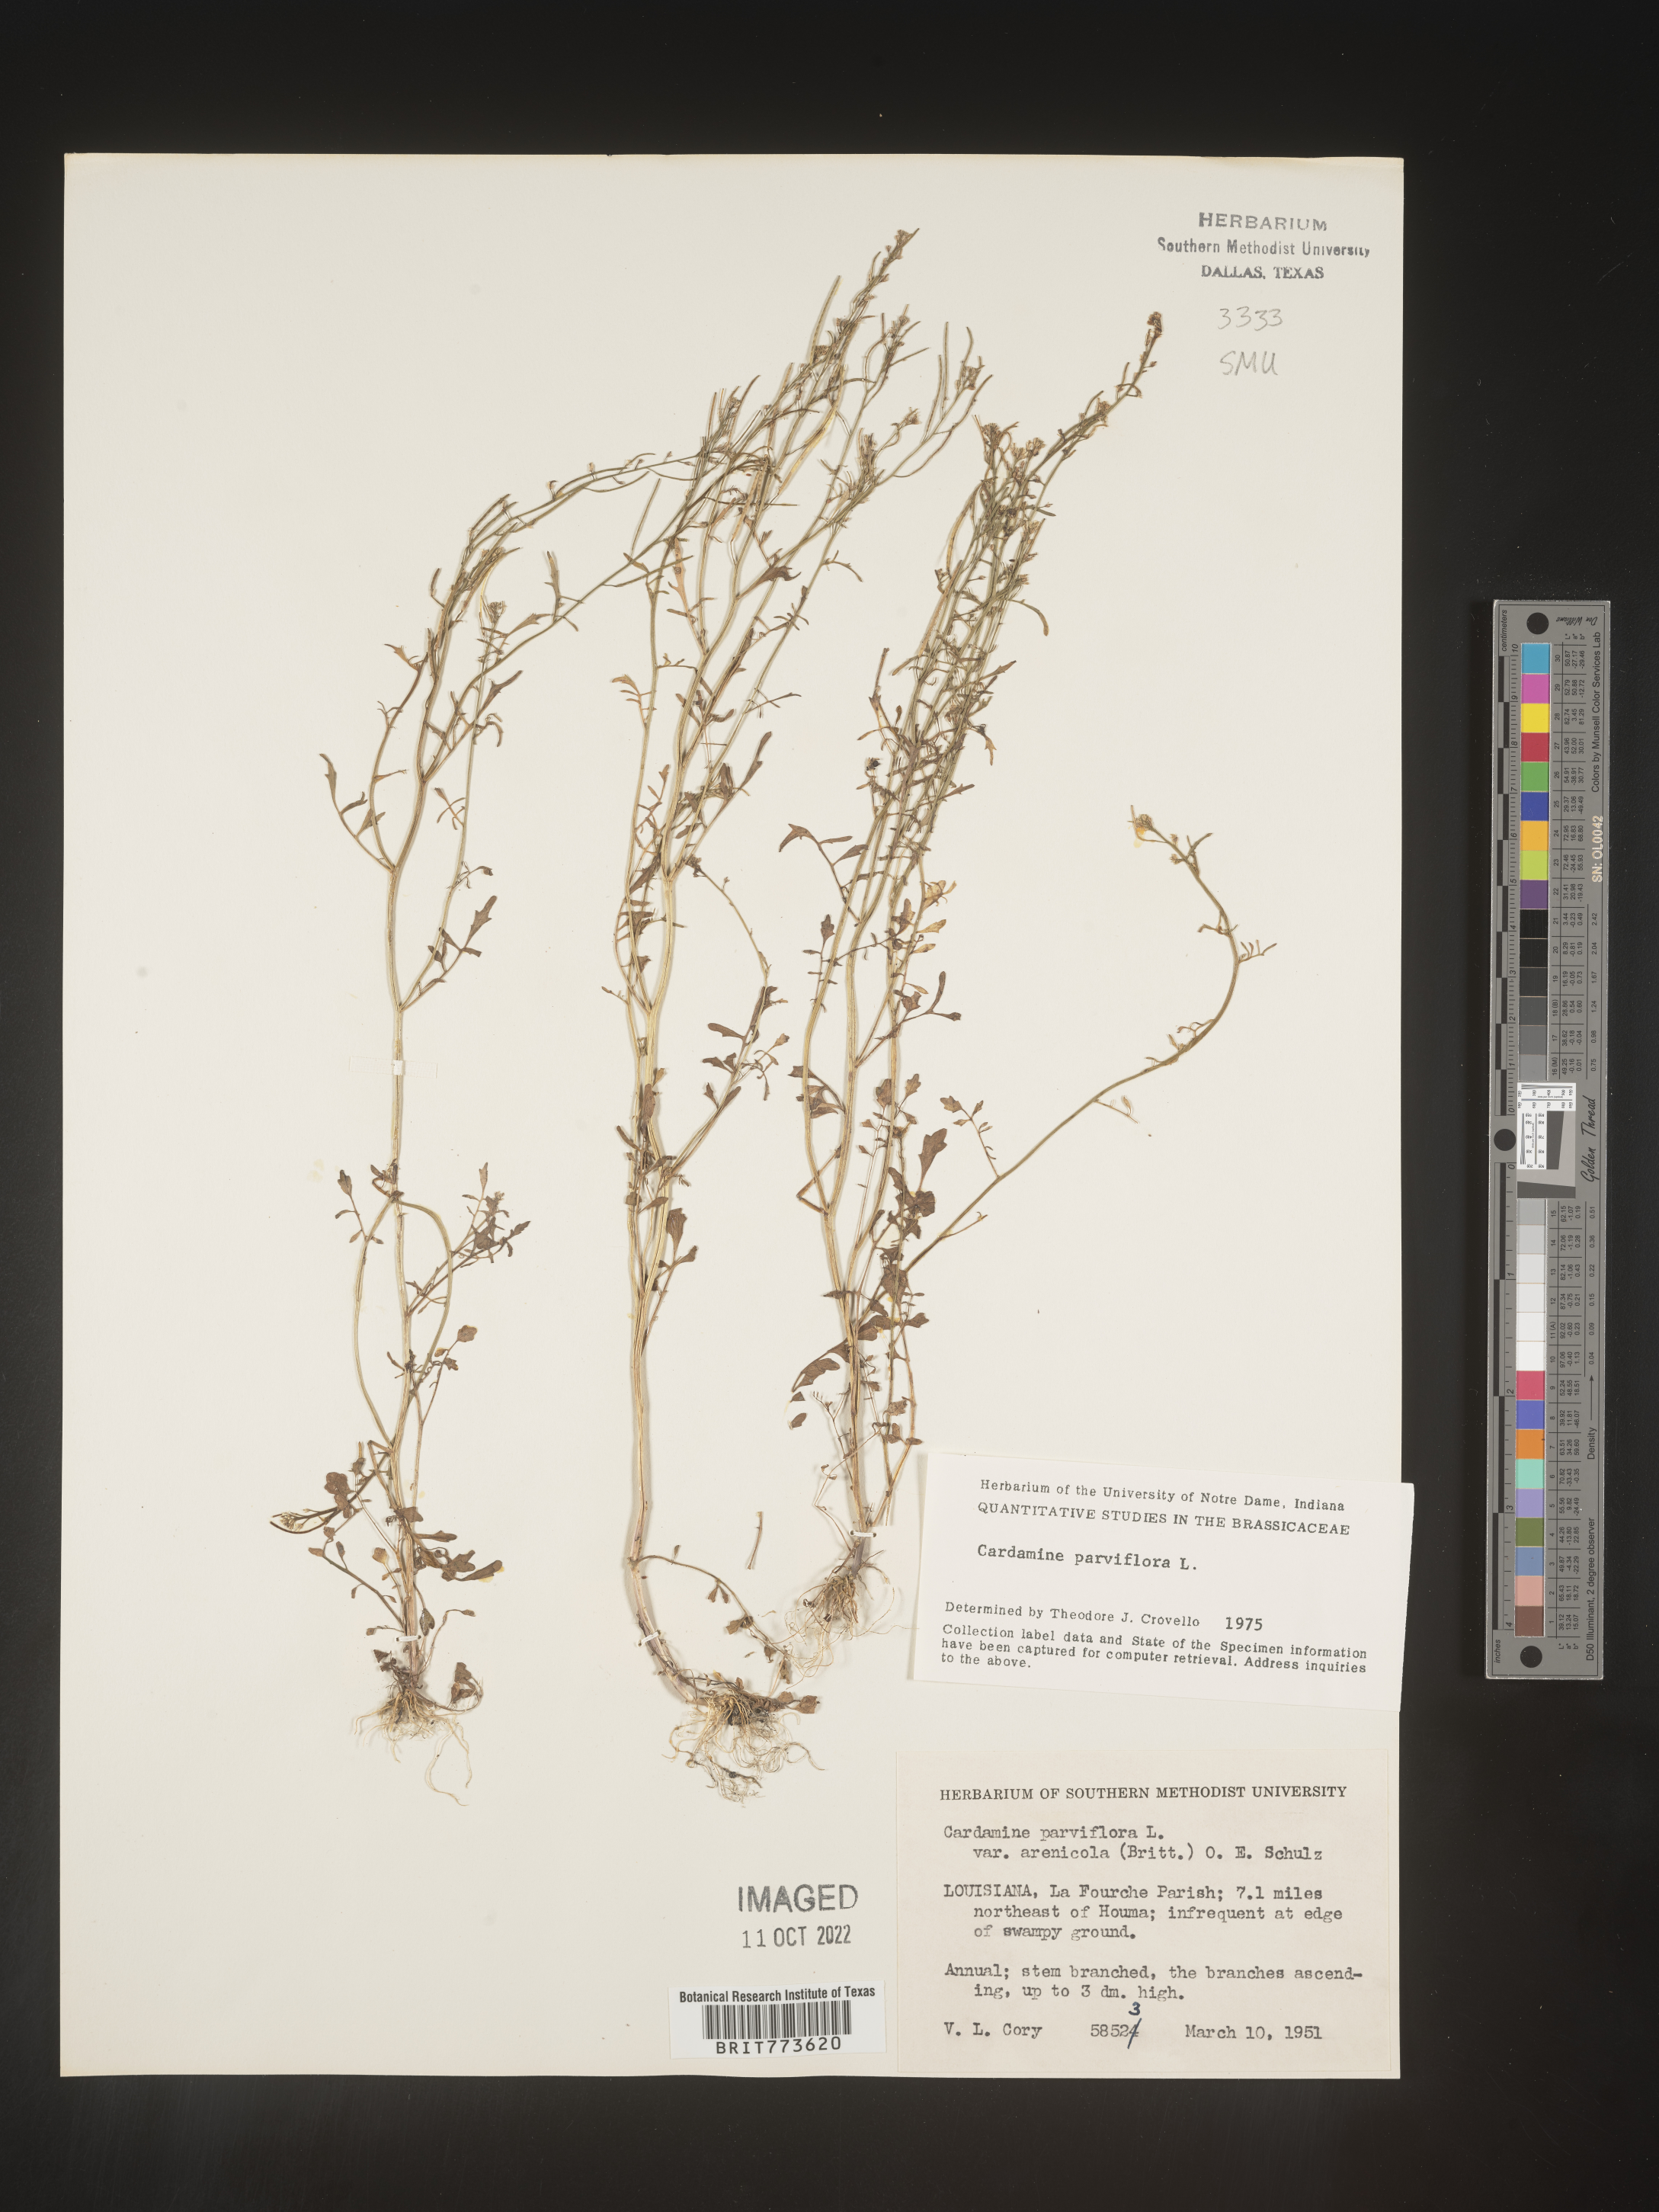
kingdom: Plantae
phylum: Tracheophyta
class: Magnoliopsida
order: Brassicales
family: Brassicaceae
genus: Cardamine
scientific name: Cardamine parviflora
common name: Sand bittercress
